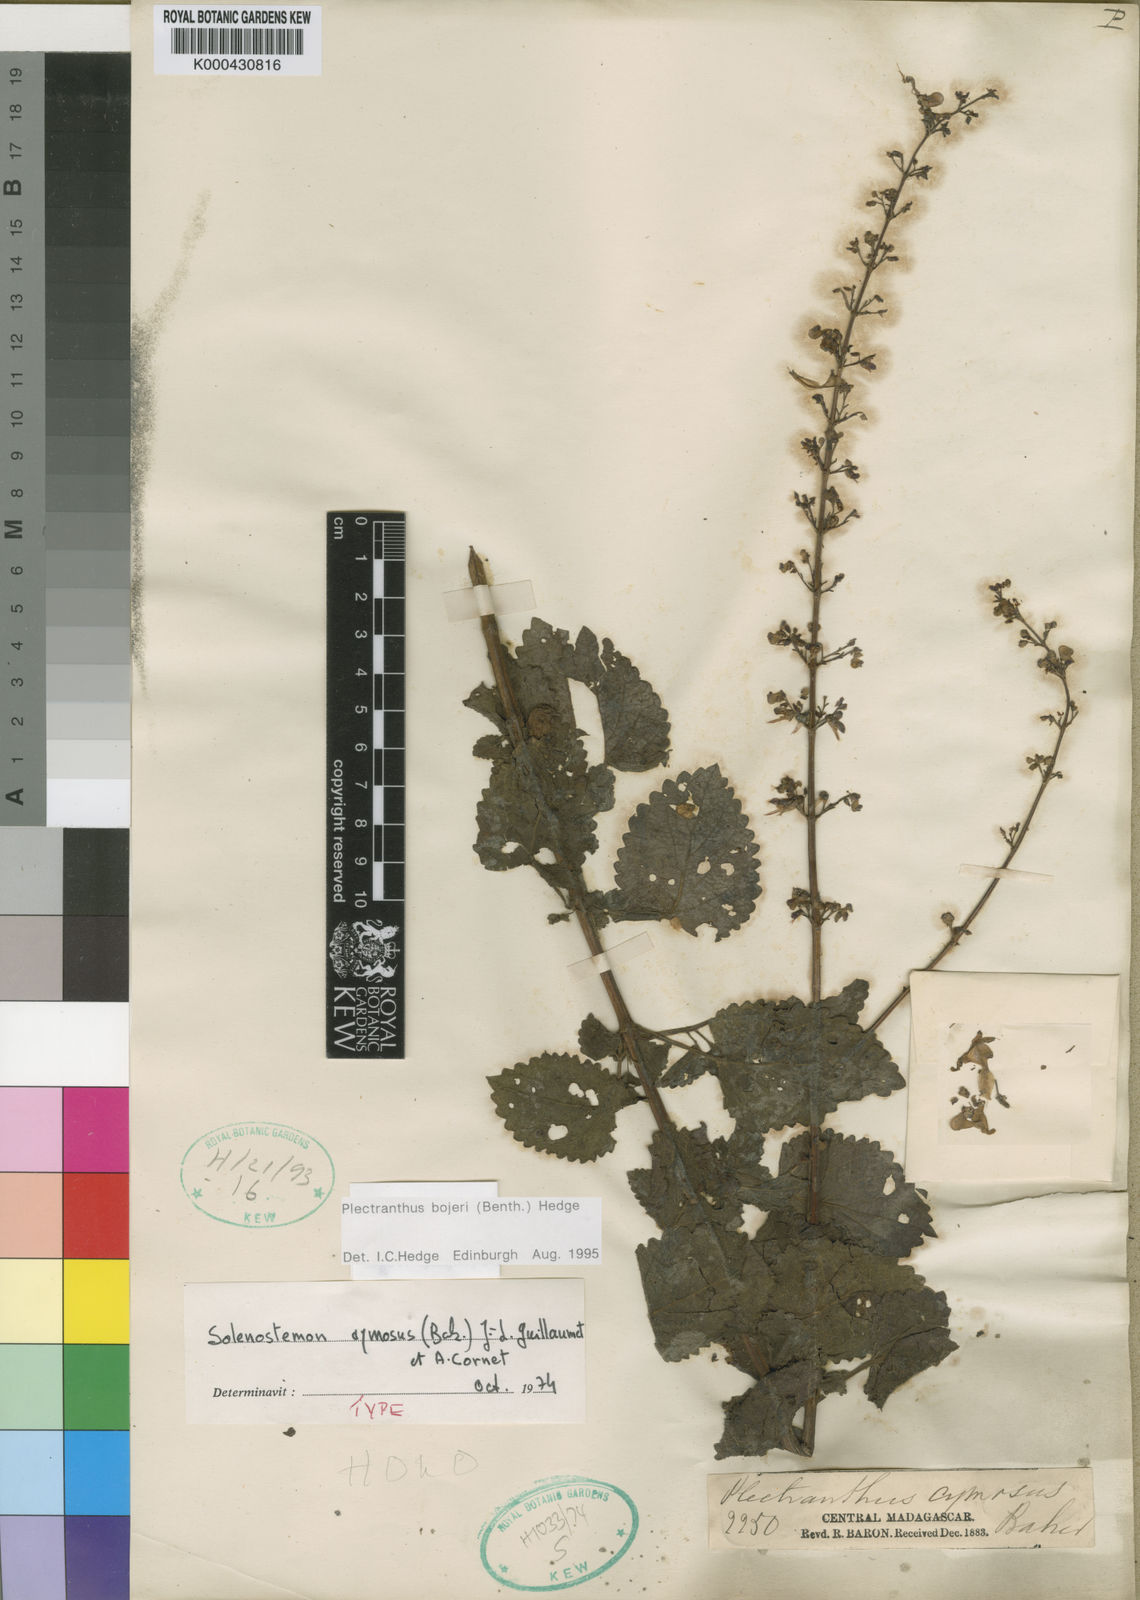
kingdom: Plantae
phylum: Tracheophyta
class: Magnoliopsida
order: Lamiales
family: Lamiaceae
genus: Coleus
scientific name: Coleus bojeri
